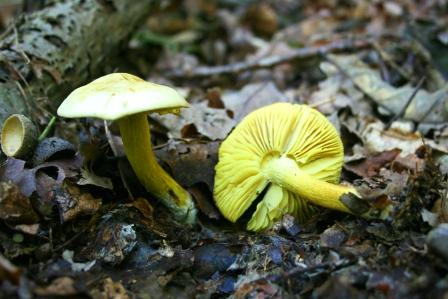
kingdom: Fungi
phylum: Basidiomycota
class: Agaricomycetes
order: Agaricales
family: Tricholomataceae
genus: Tricholoma
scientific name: Tricholoma sulphureum
